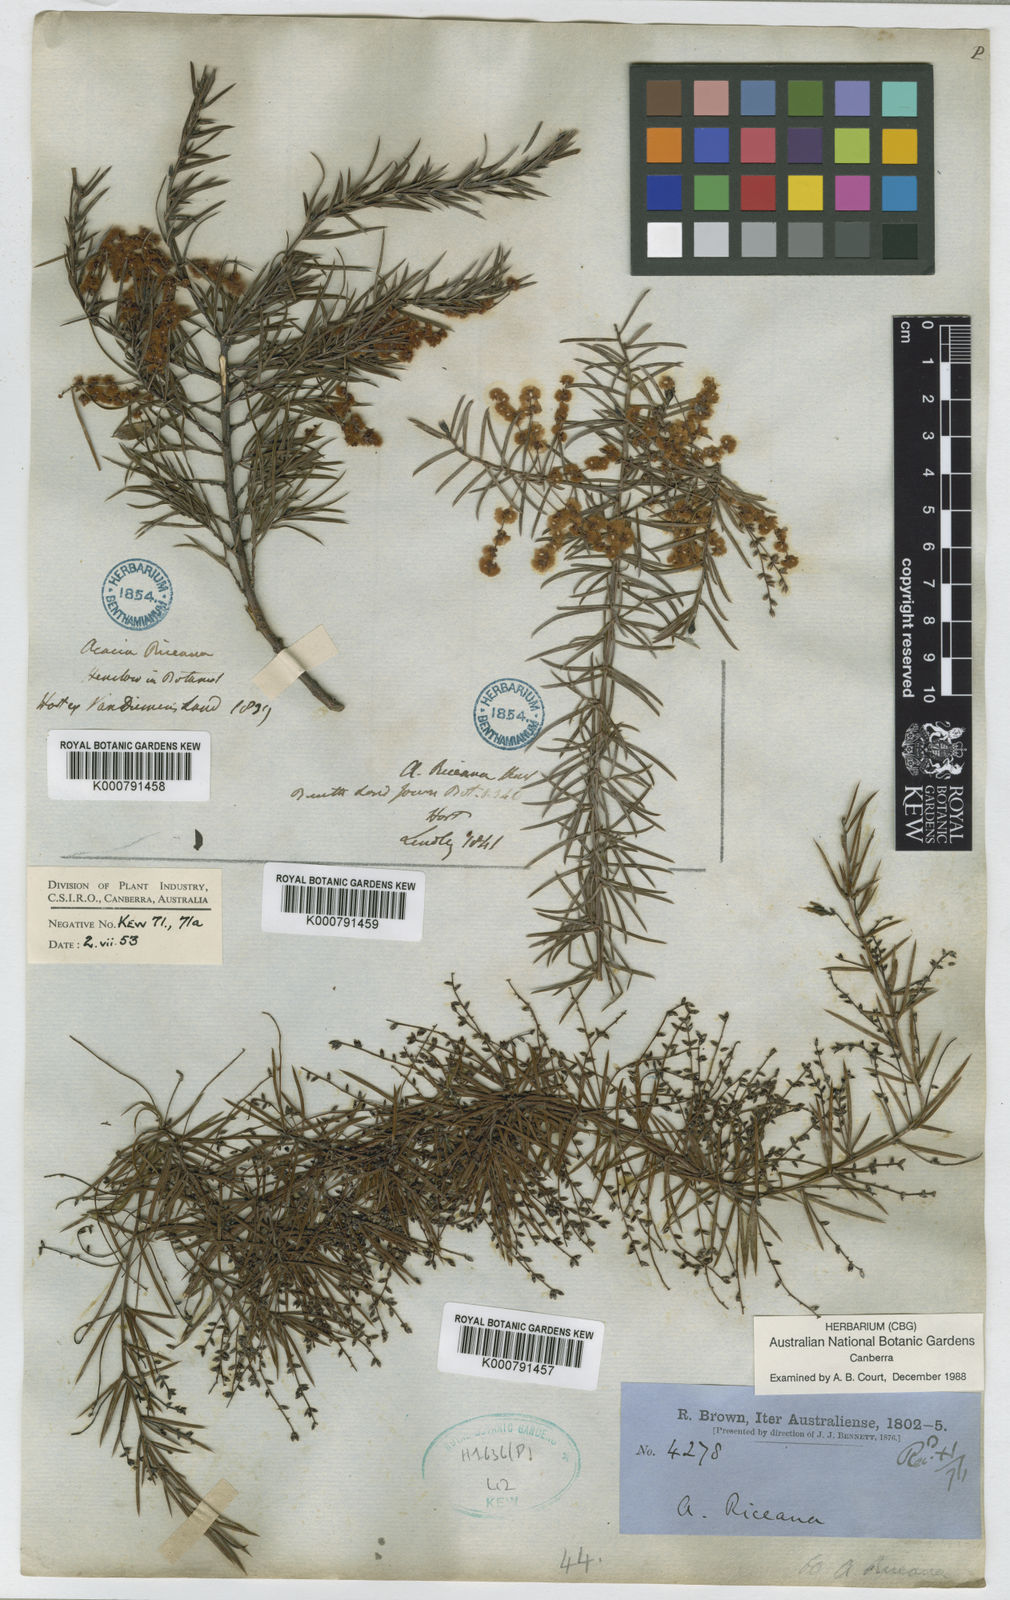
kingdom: Plantae
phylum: Tracheophyta
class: Magnoliopsida
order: Fabales
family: Fabaceae
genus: Acacia
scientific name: Acacia riceana
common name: Rice's wattle
